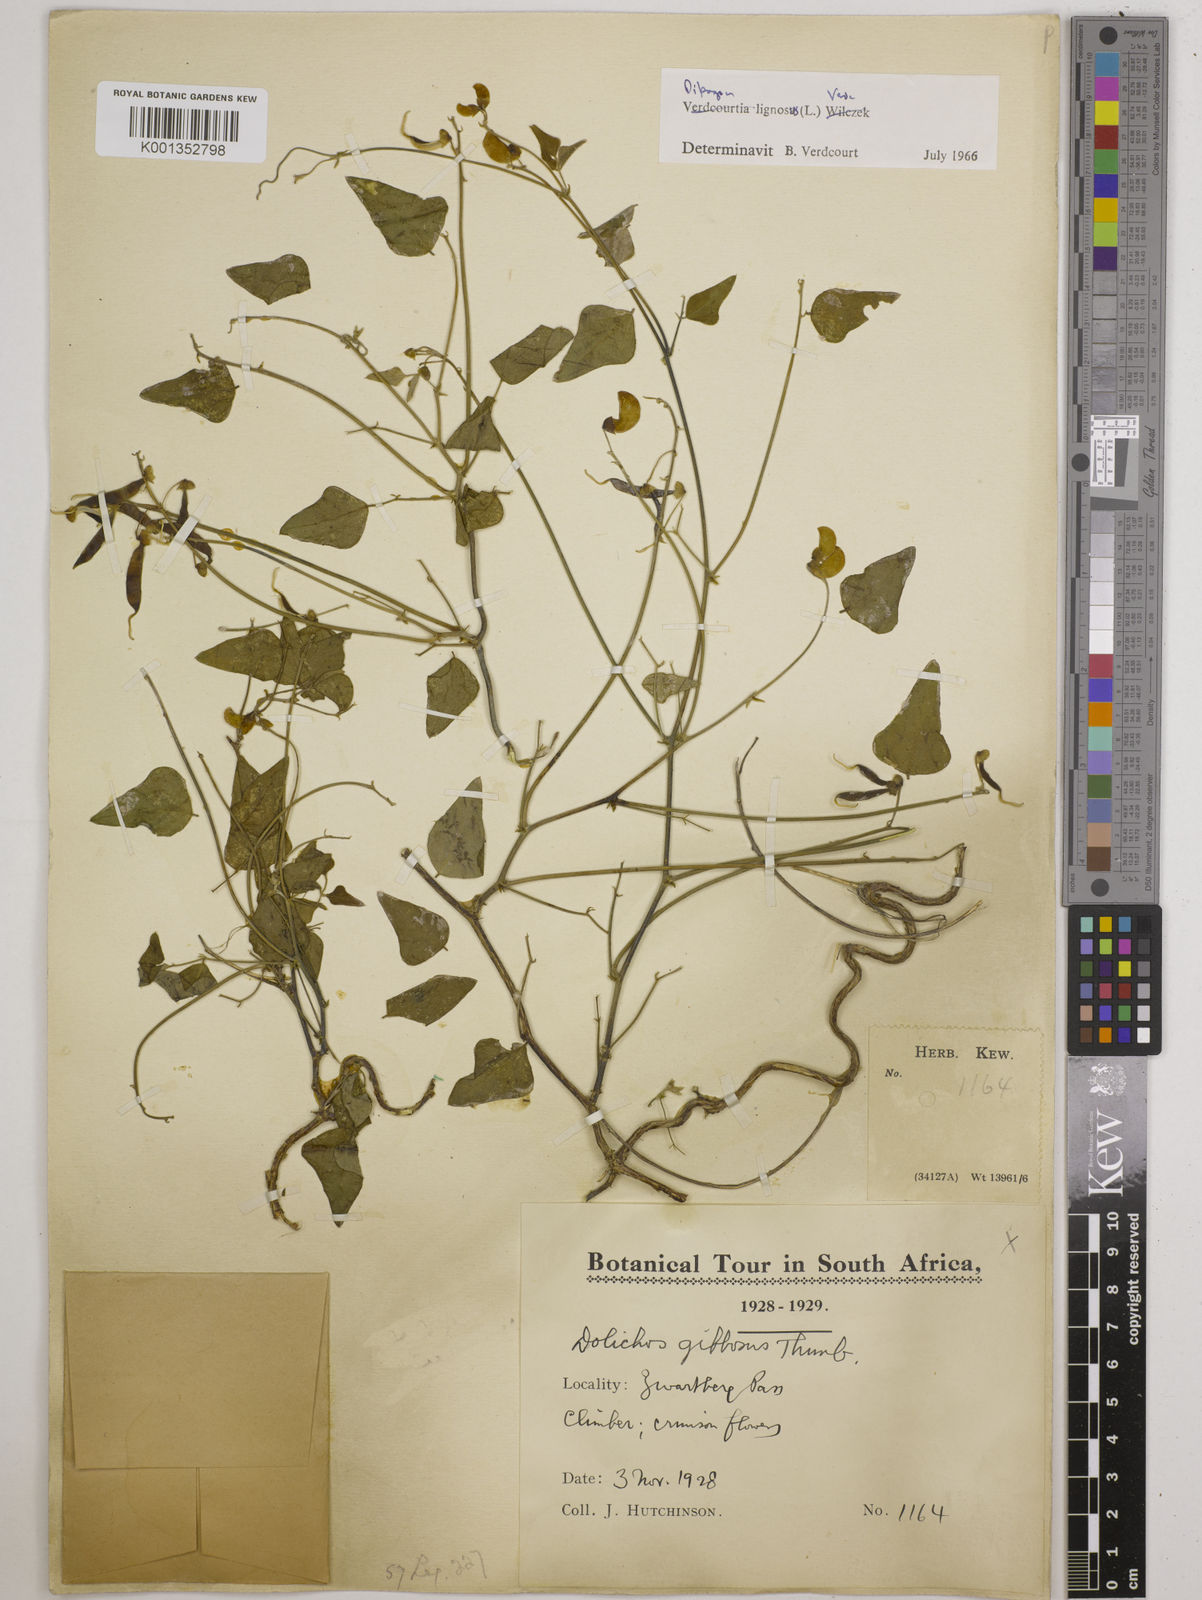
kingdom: Plantae
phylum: Tracheophyta
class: Magnoliopsida
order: Fabales
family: Fabaceae
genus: Dipogon
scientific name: Dipogon lignosus
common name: Okie bean
